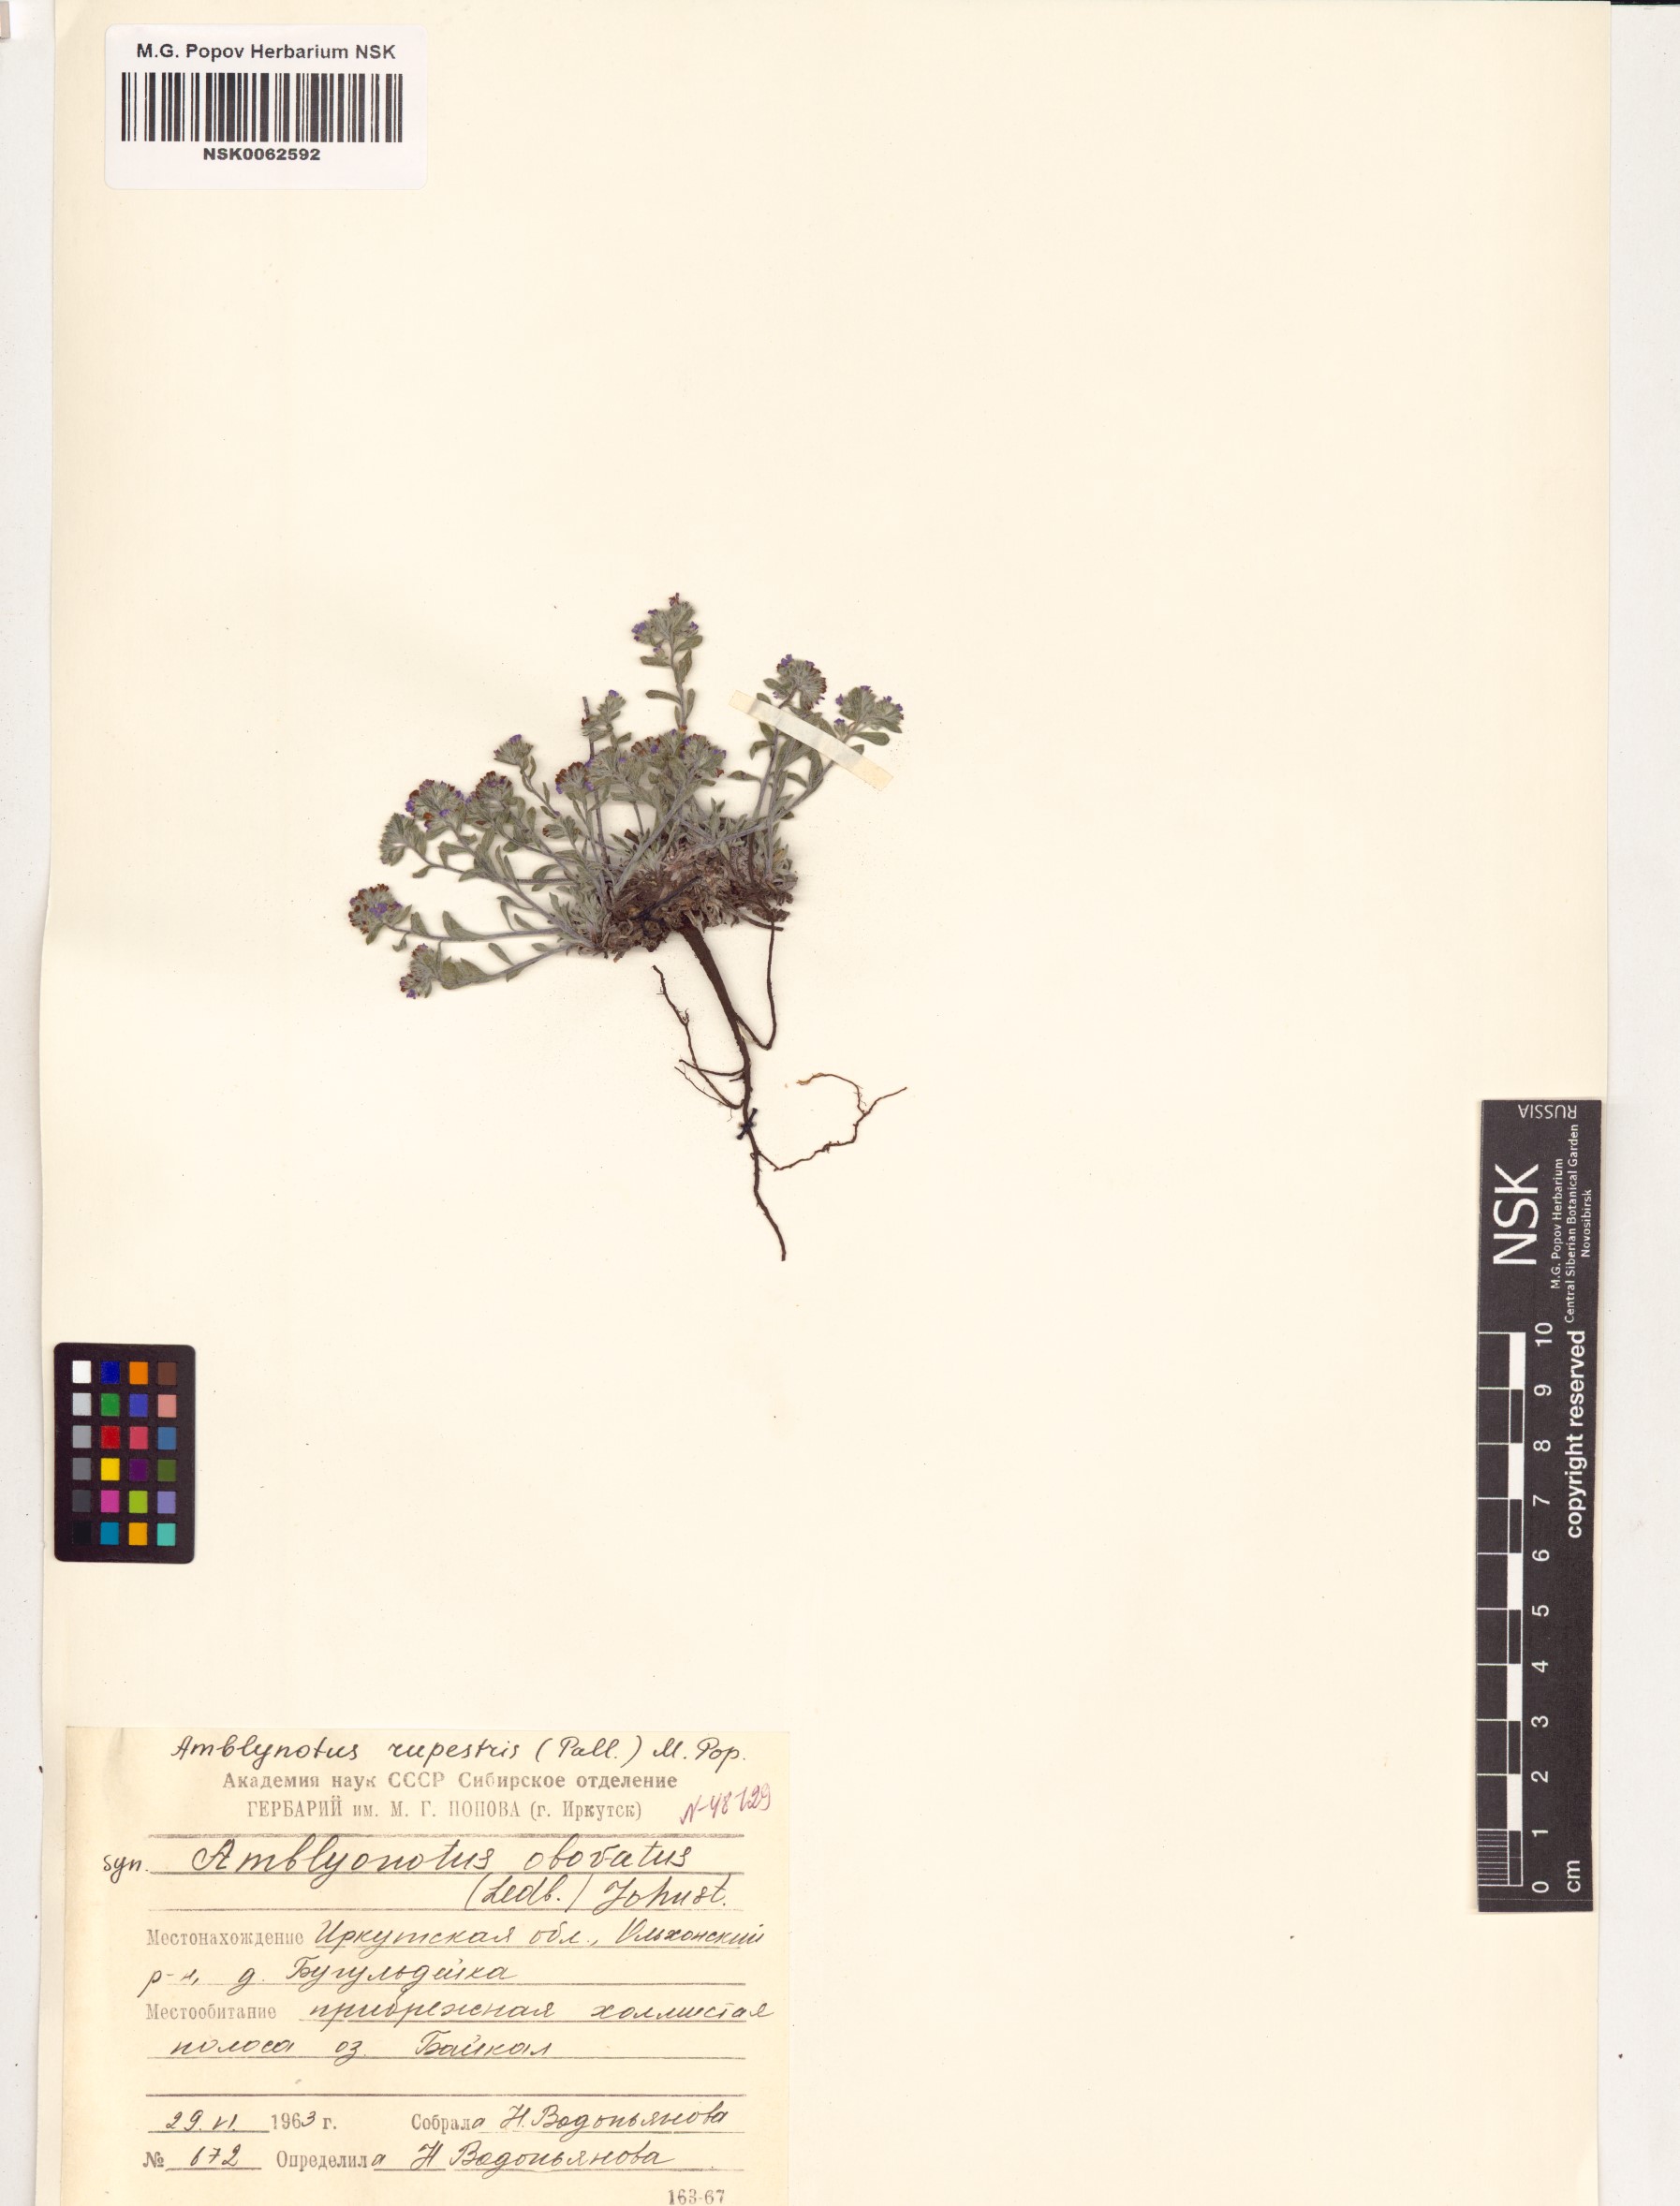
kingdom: Plantae
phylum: Tracheophyta
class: Magnoliopsida
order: Boraginales
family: Boraginaceae
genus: Eritrichium
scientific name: Eritrichium rupestre
